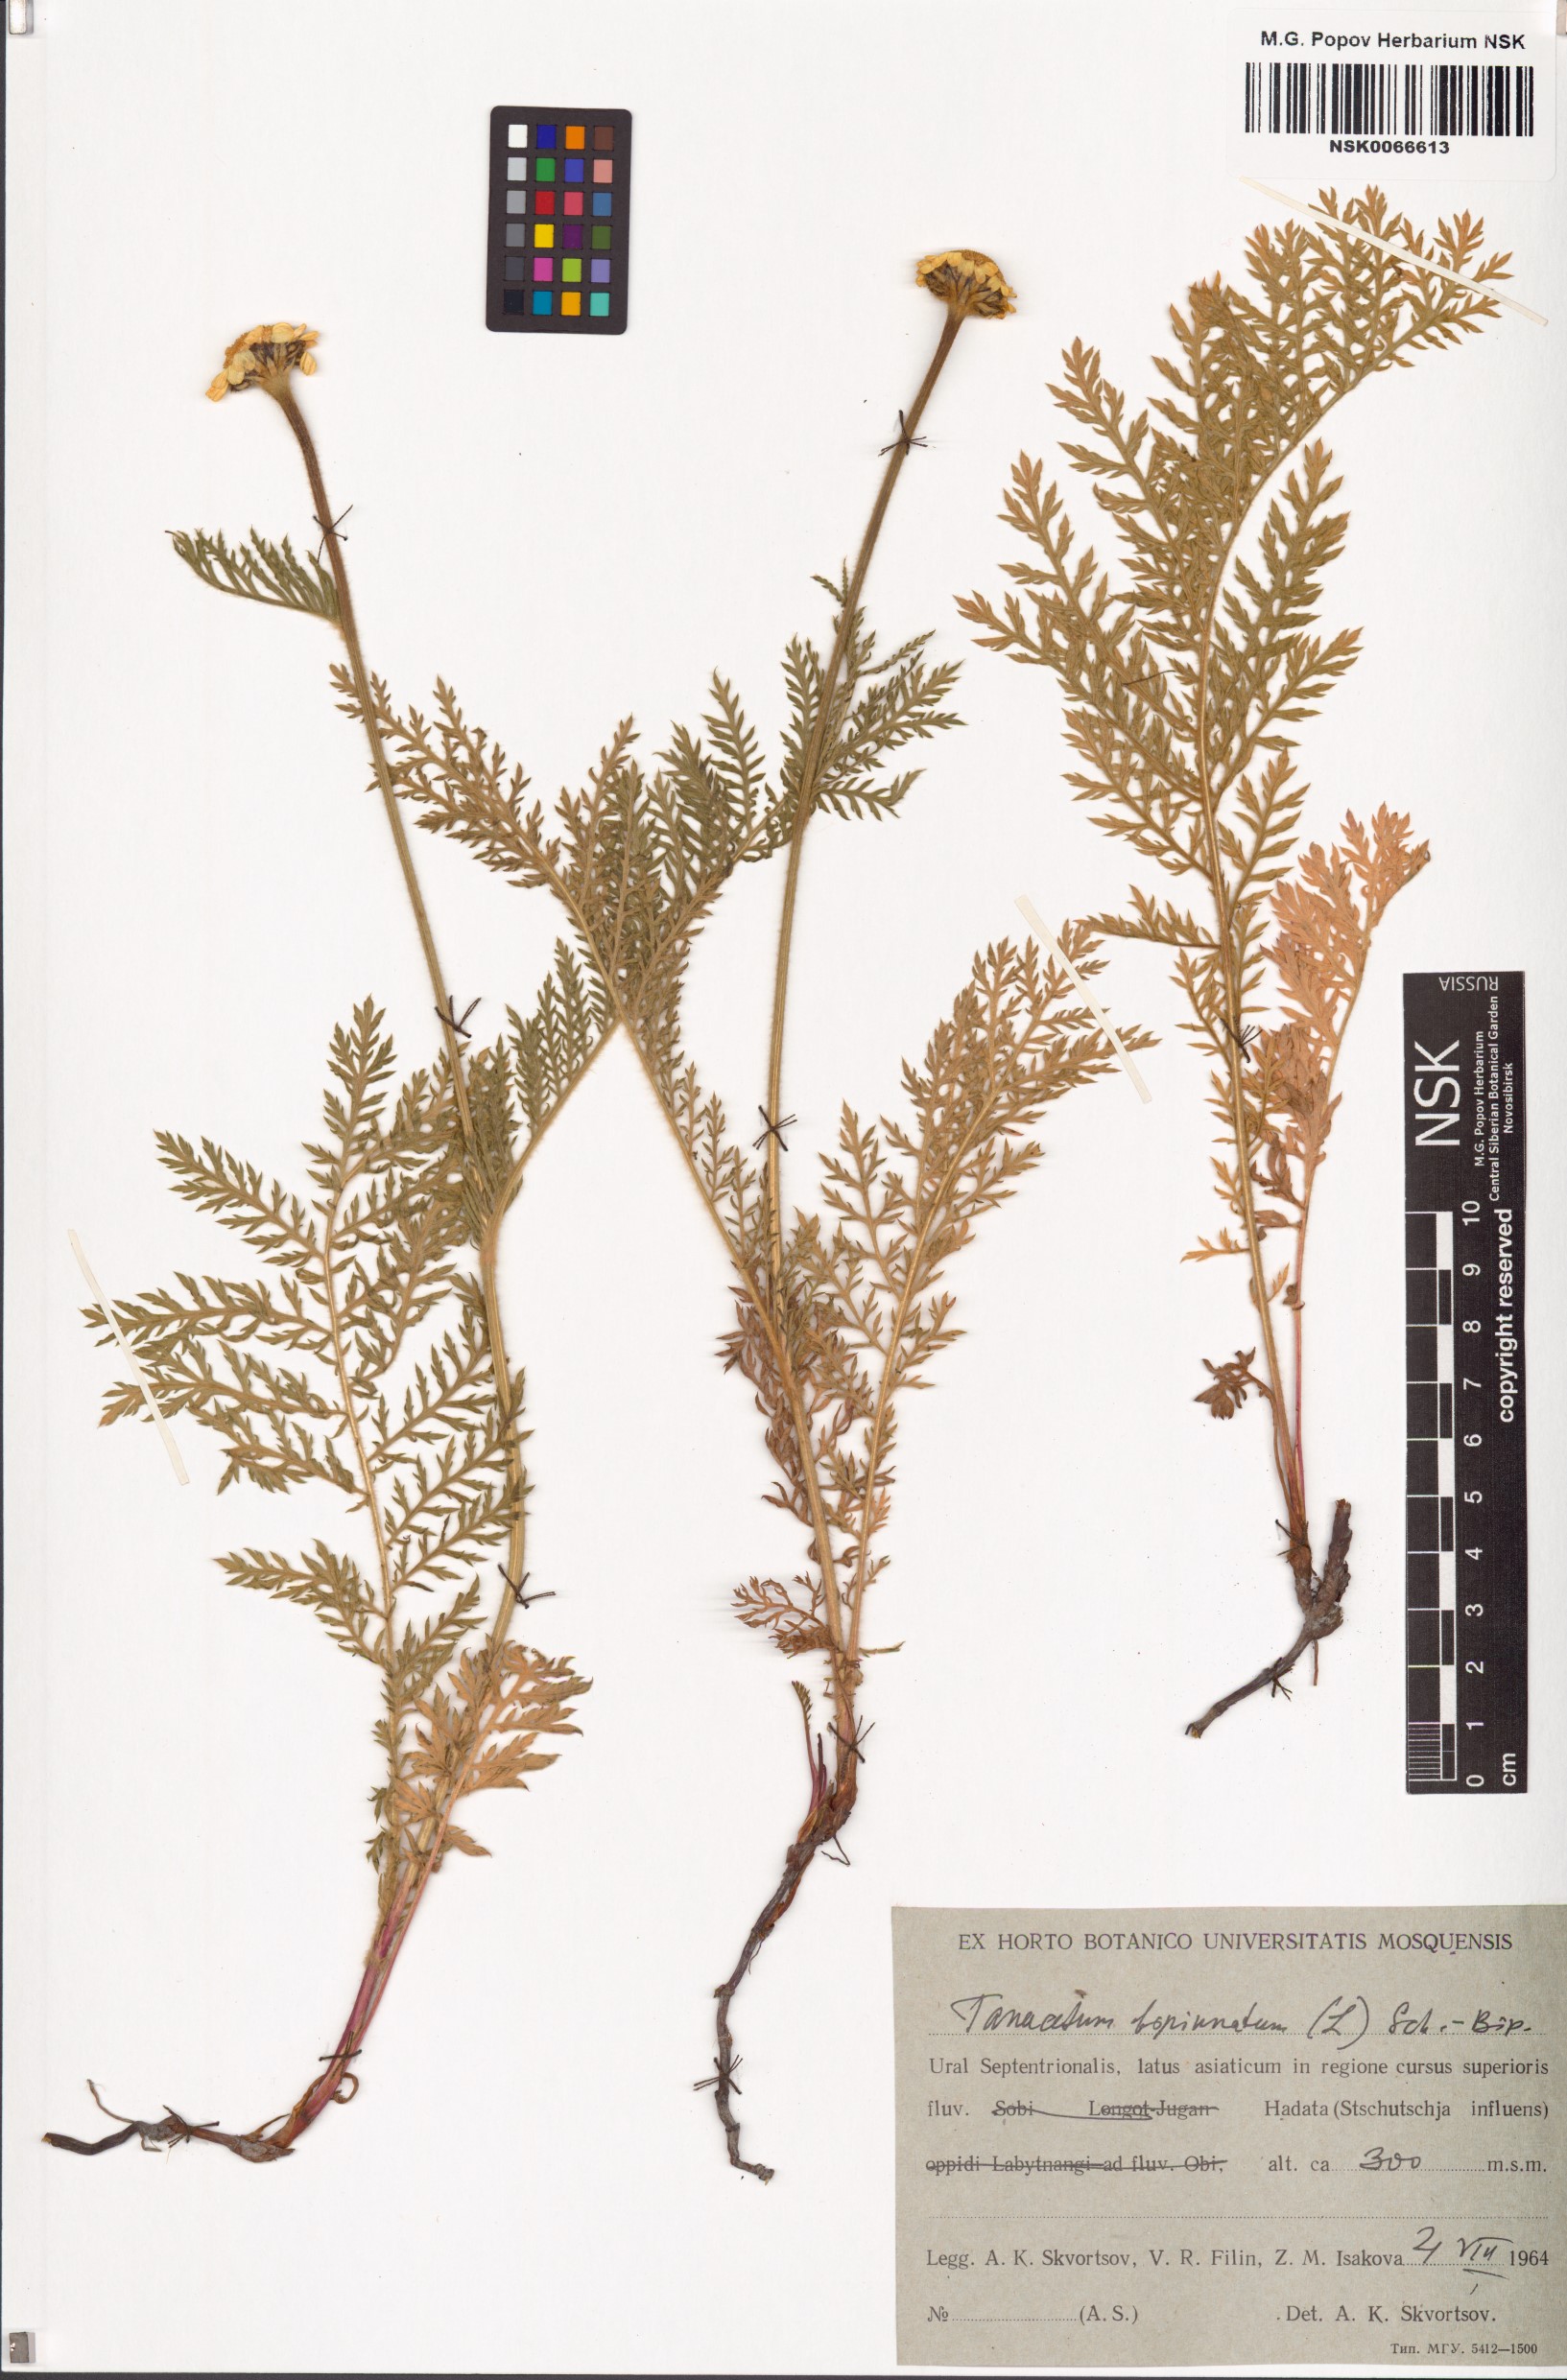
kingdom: Plantae
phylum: Tracheophyta
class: Magnoliopsida
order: Asterales
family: Asteraceae
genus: Tanacetum
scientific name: Tanacetum bipinnatum
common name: Dwarf tansy
